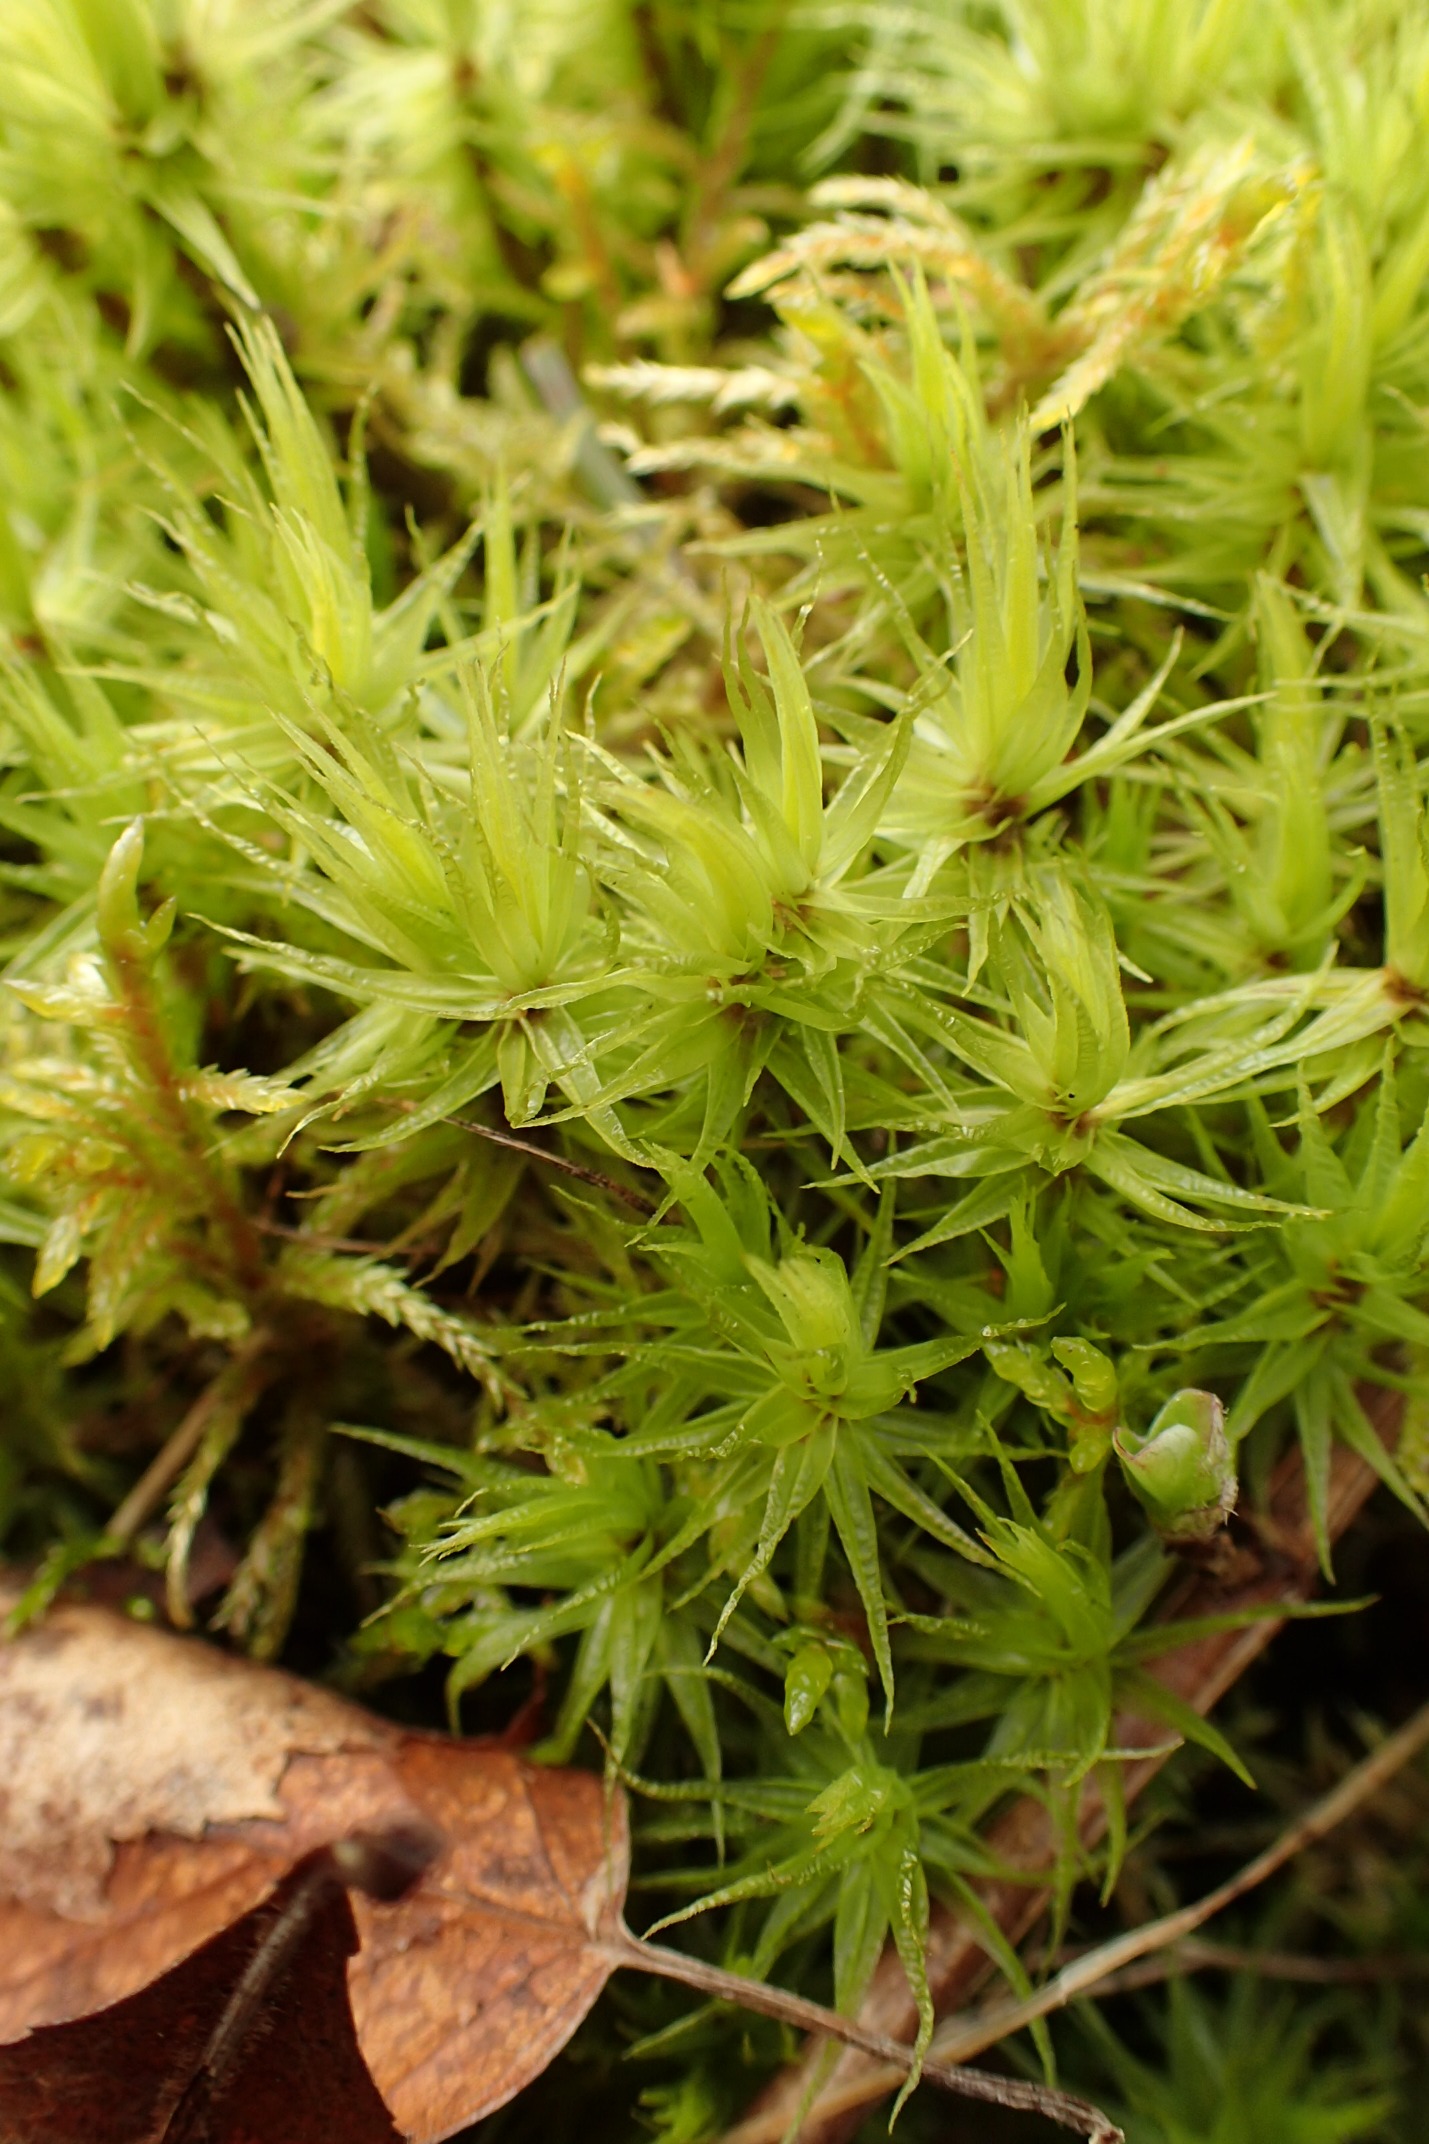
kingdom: Plantae
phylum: Bryophyta
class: Bryopsida
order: Dicranales
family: Dicranaceae
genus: Dicranum
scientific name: Dicranum polysetum
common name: Bølgebladet kløvtand
